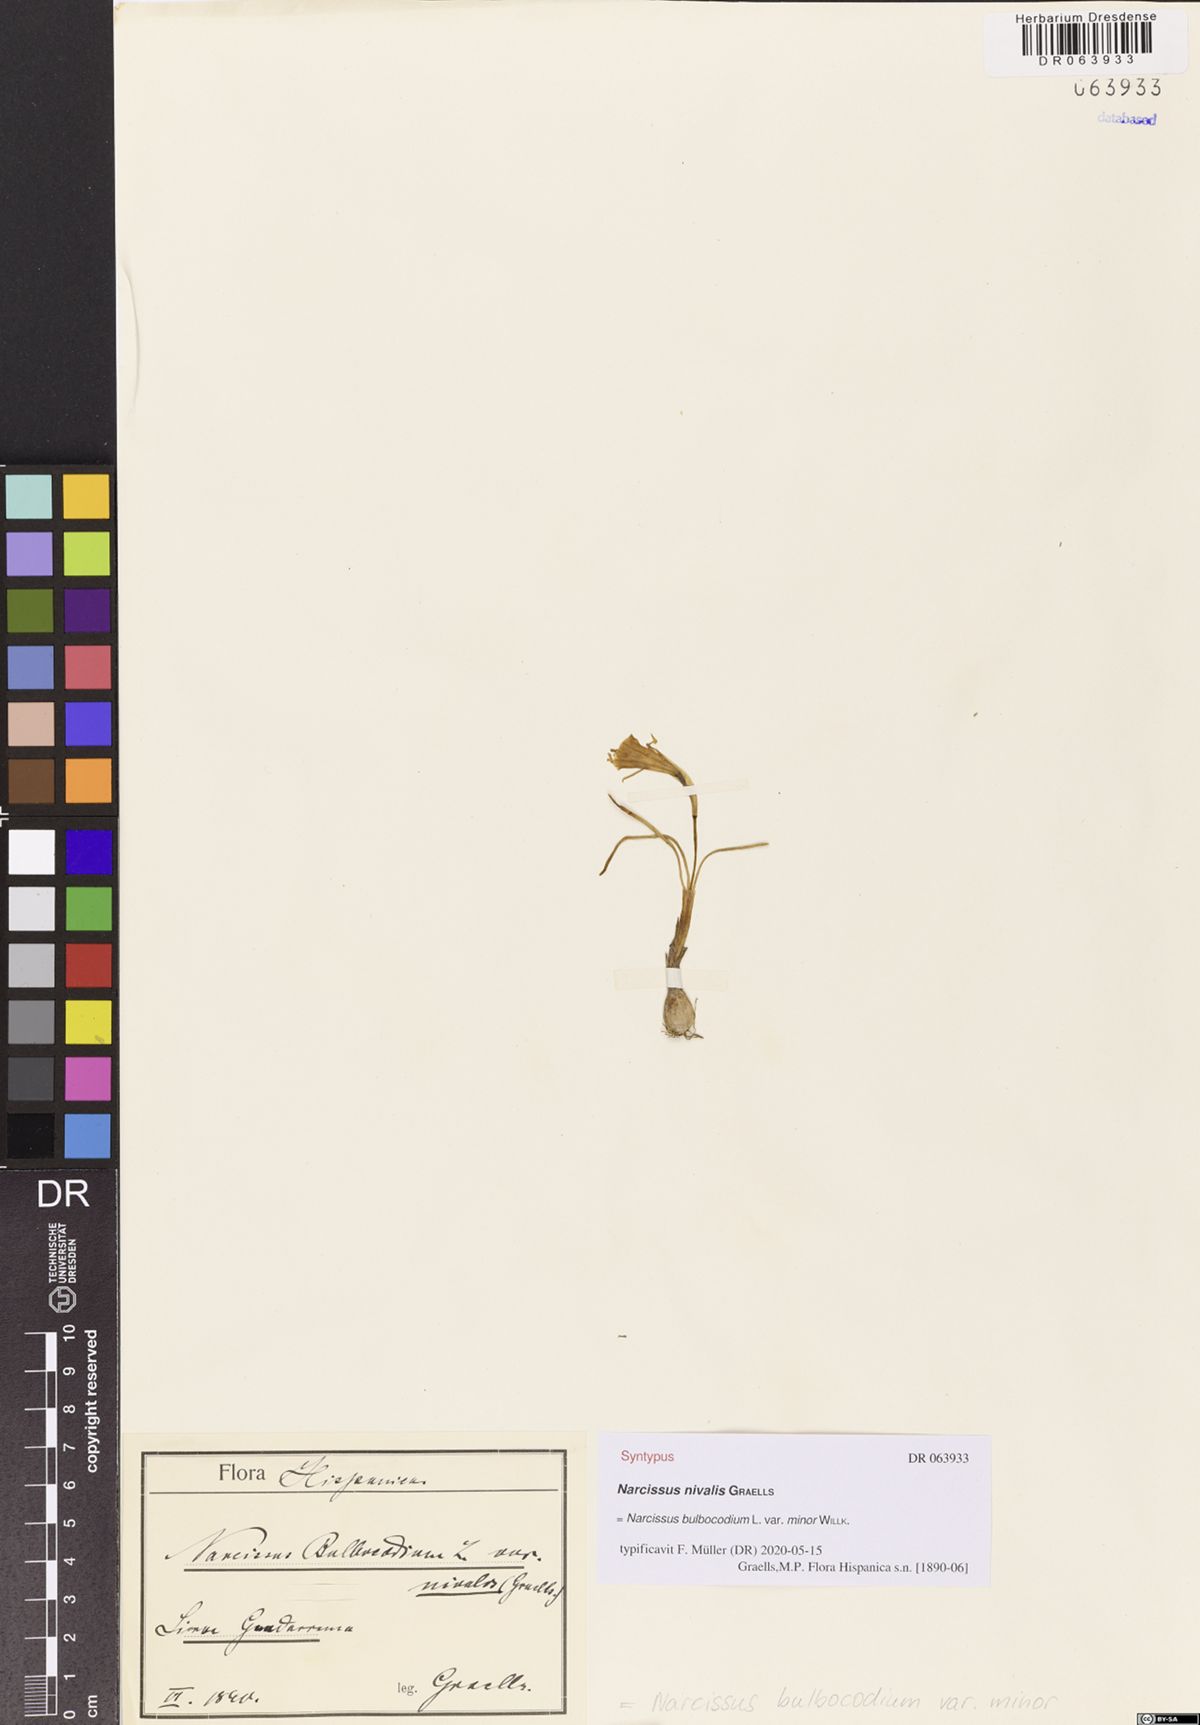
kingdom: Plantae
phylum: Tracheophyta
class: Liliopsida
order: Asparagales
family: Amaryllidaceae
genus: Narcissus
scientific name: Narcissus bulbocodium
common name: Hoop-petticoat daffodil
